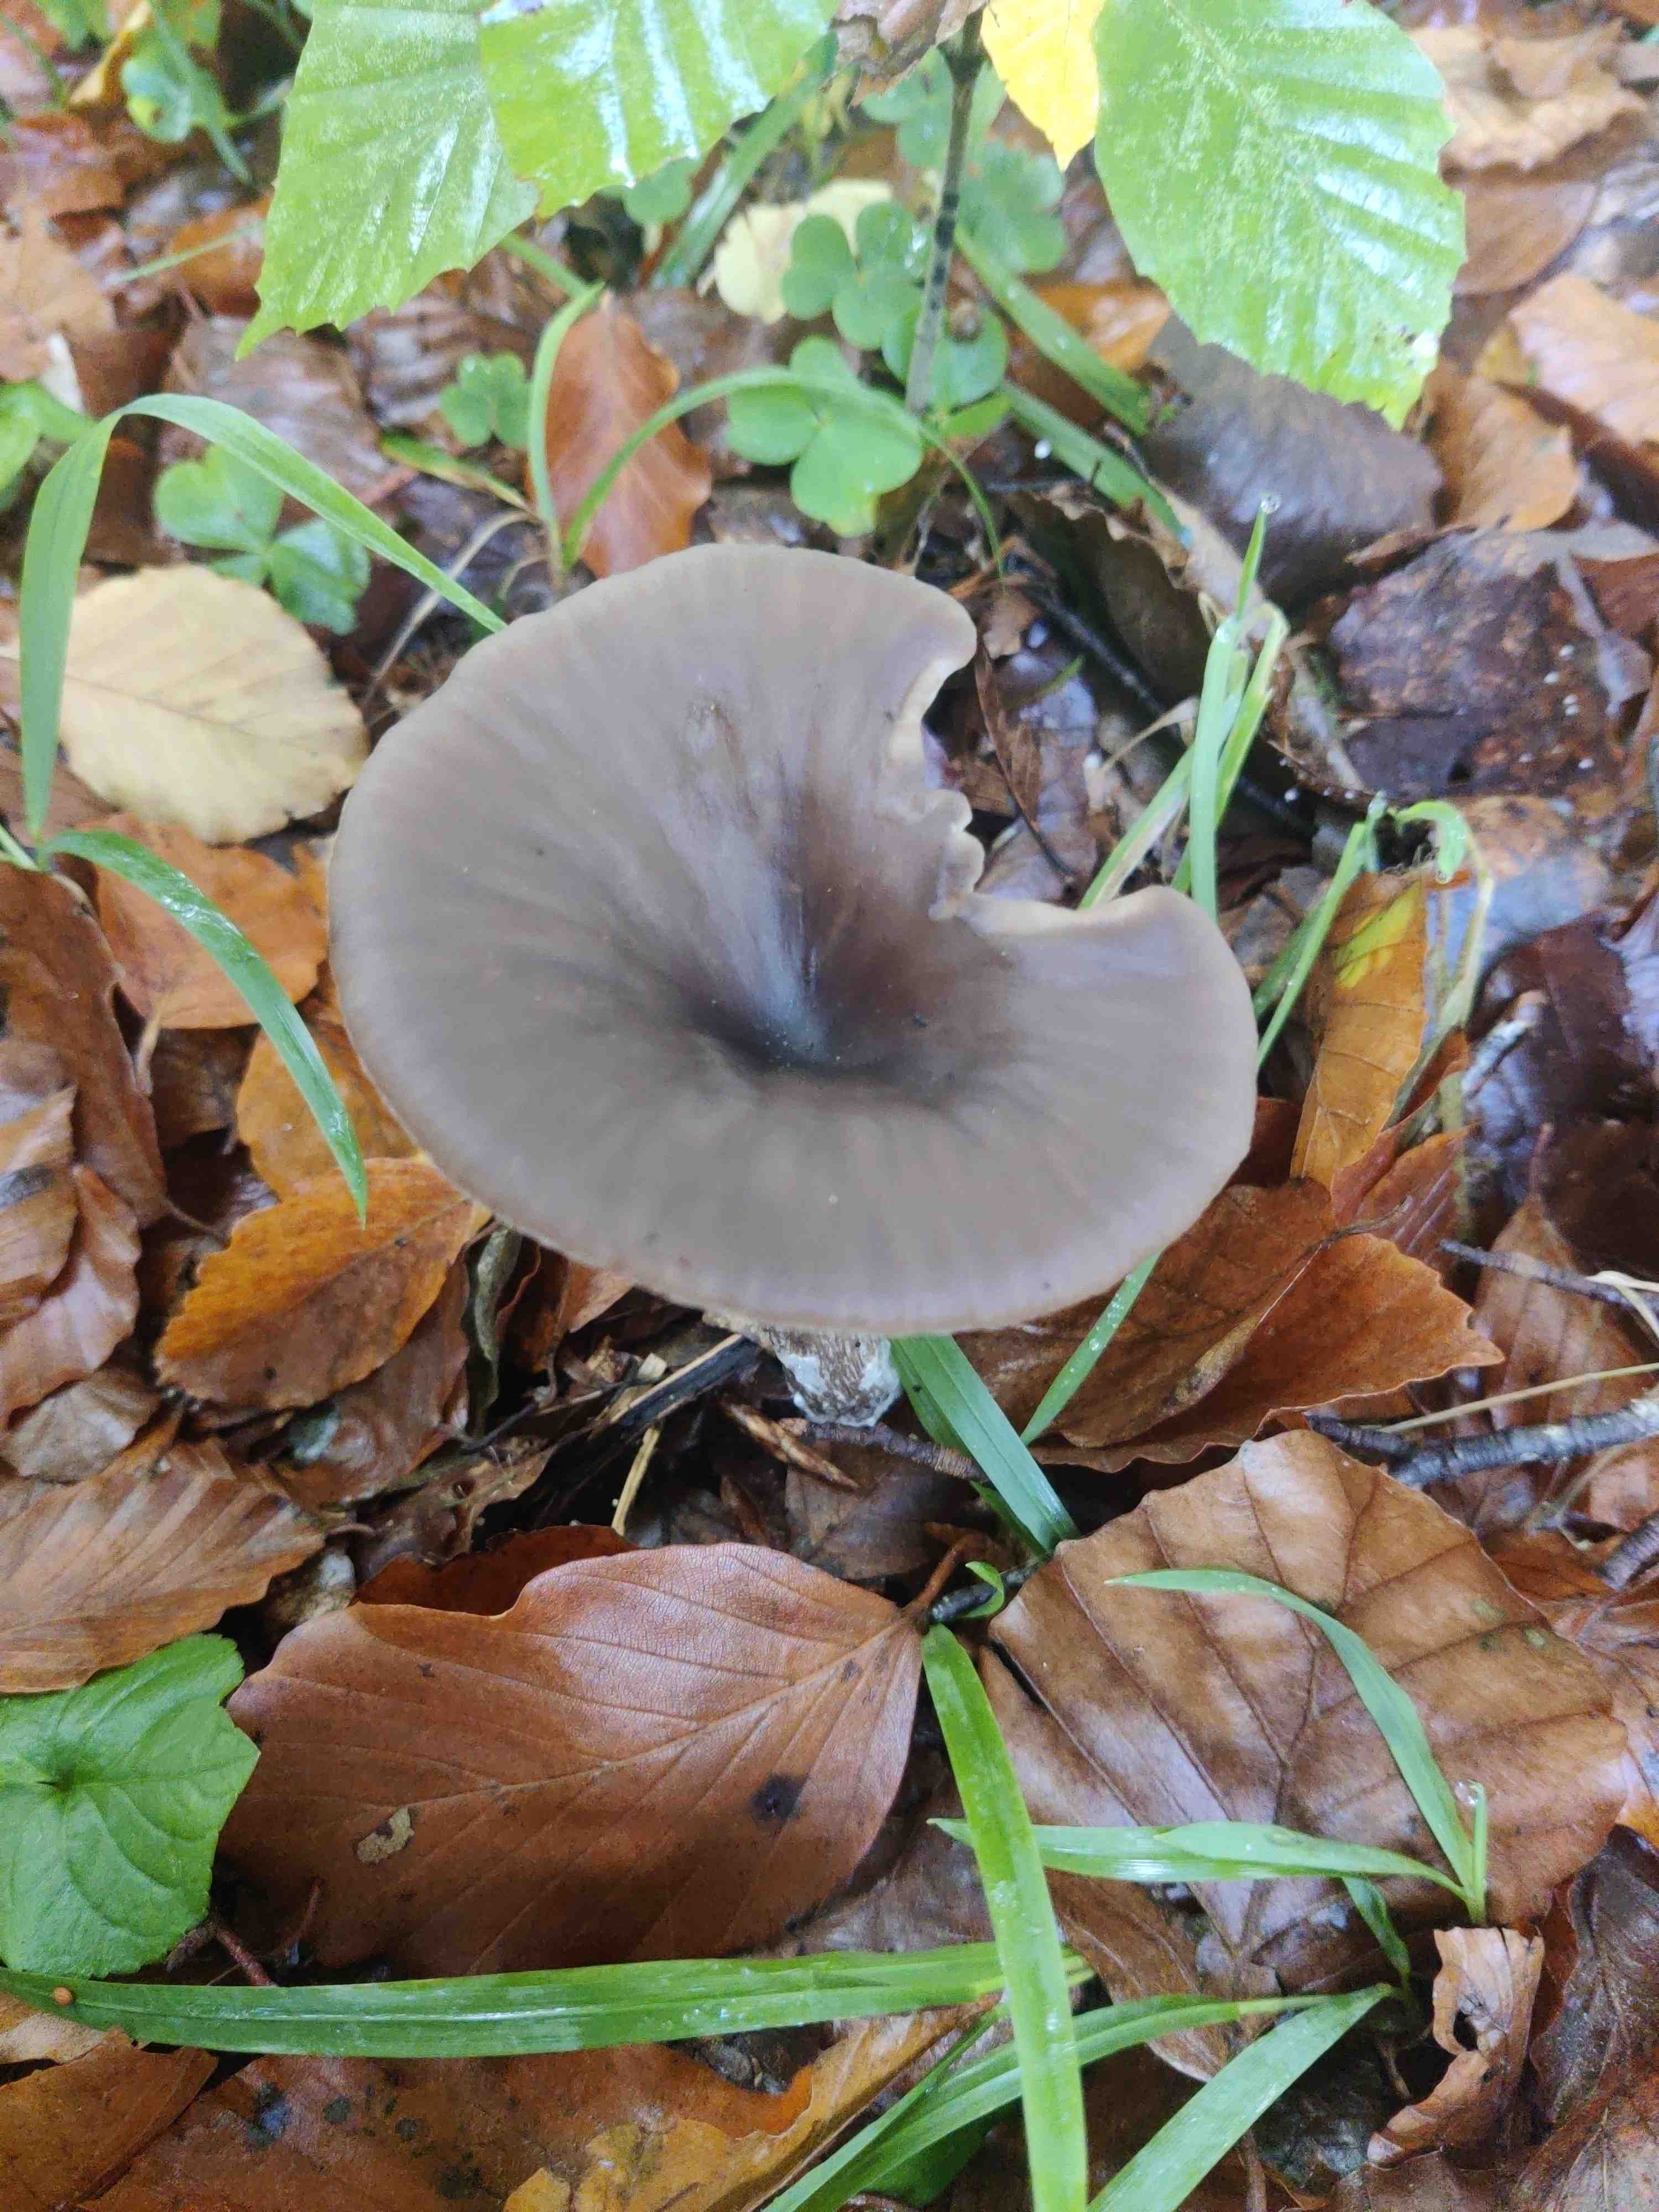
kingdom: Fungi
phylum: Basidiomycota
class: Agaricomycetes
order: Agaricales
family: Pseudoclitocybaceae
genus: Pseudoclitocybe
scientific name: Pseudoclitocybe cyathiformis
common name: almindelig bægertragthat
